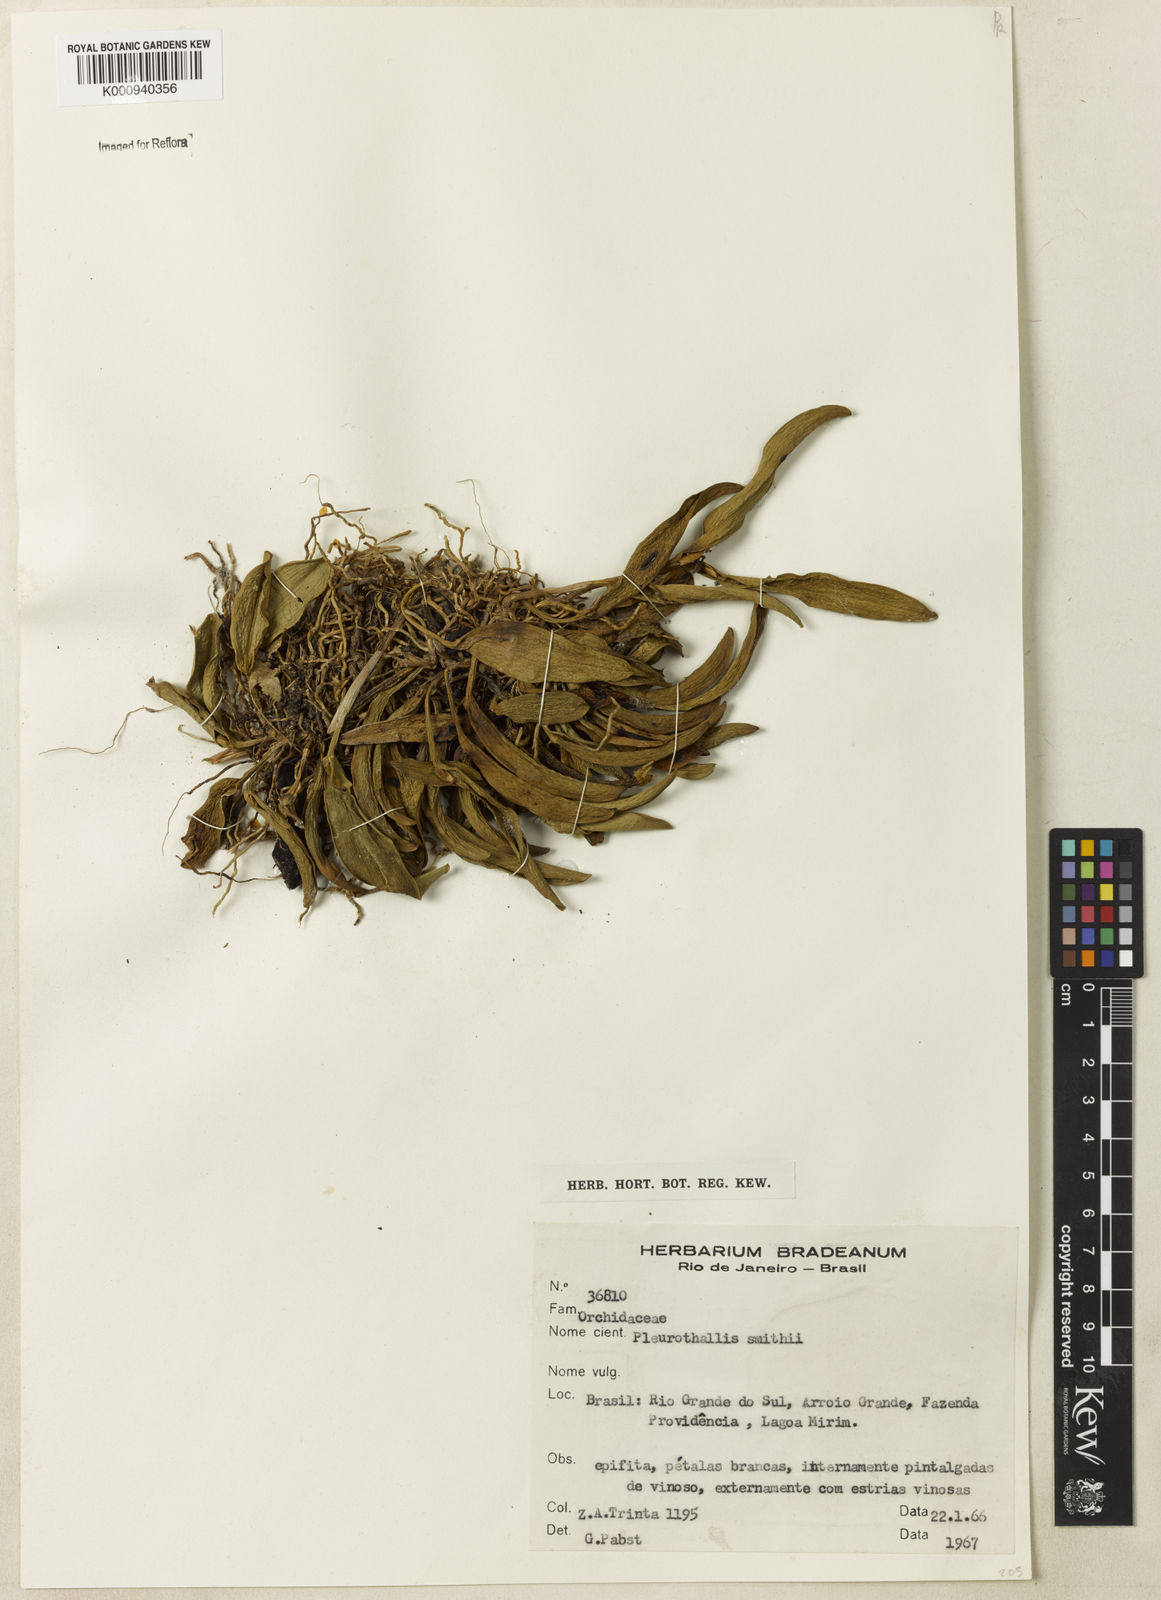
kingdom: Plantae
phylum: Tracheophyta
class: Liliopsida
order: Asparagales
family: Orchidaceae
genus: Pleurothallis
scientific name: Pleurothallis coriacardia
